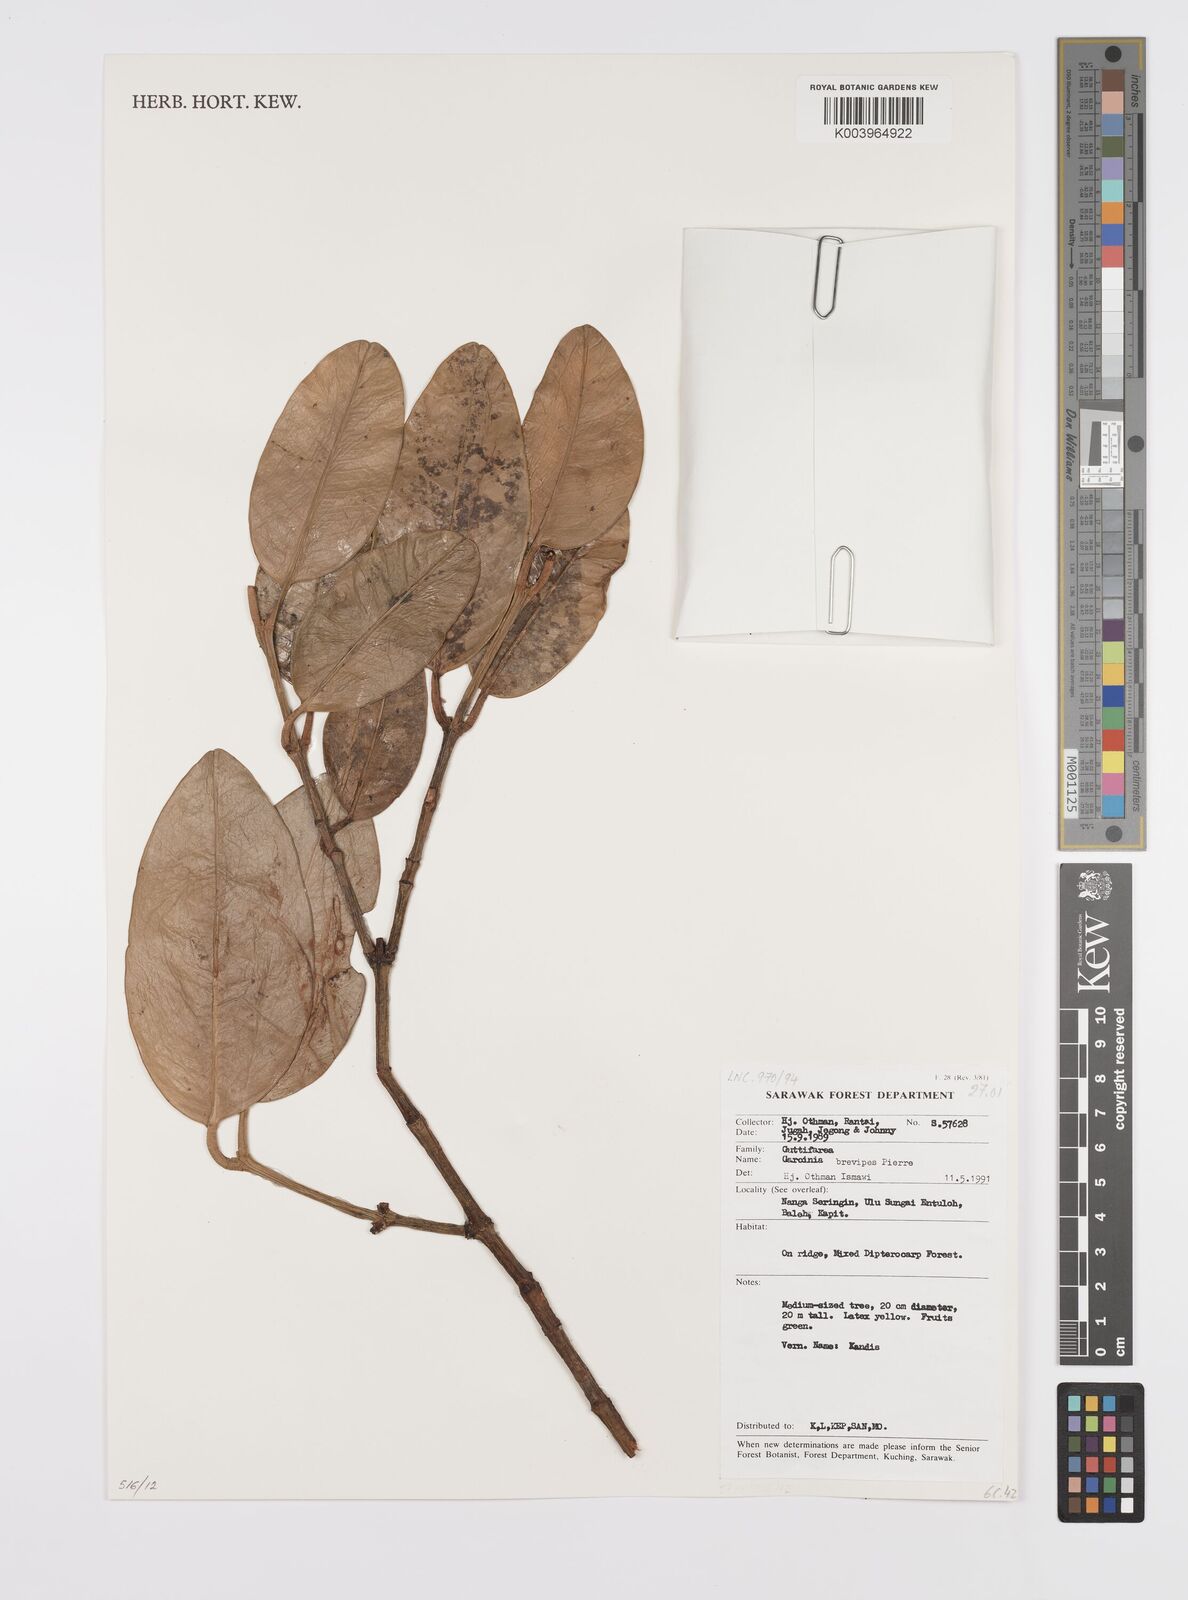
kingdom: Plantae
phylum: Tracheophyta
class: Magnoliopsida
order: Malpighiales
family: Clusiaceae
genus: Garcinia
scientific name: Garcinia brevipes
